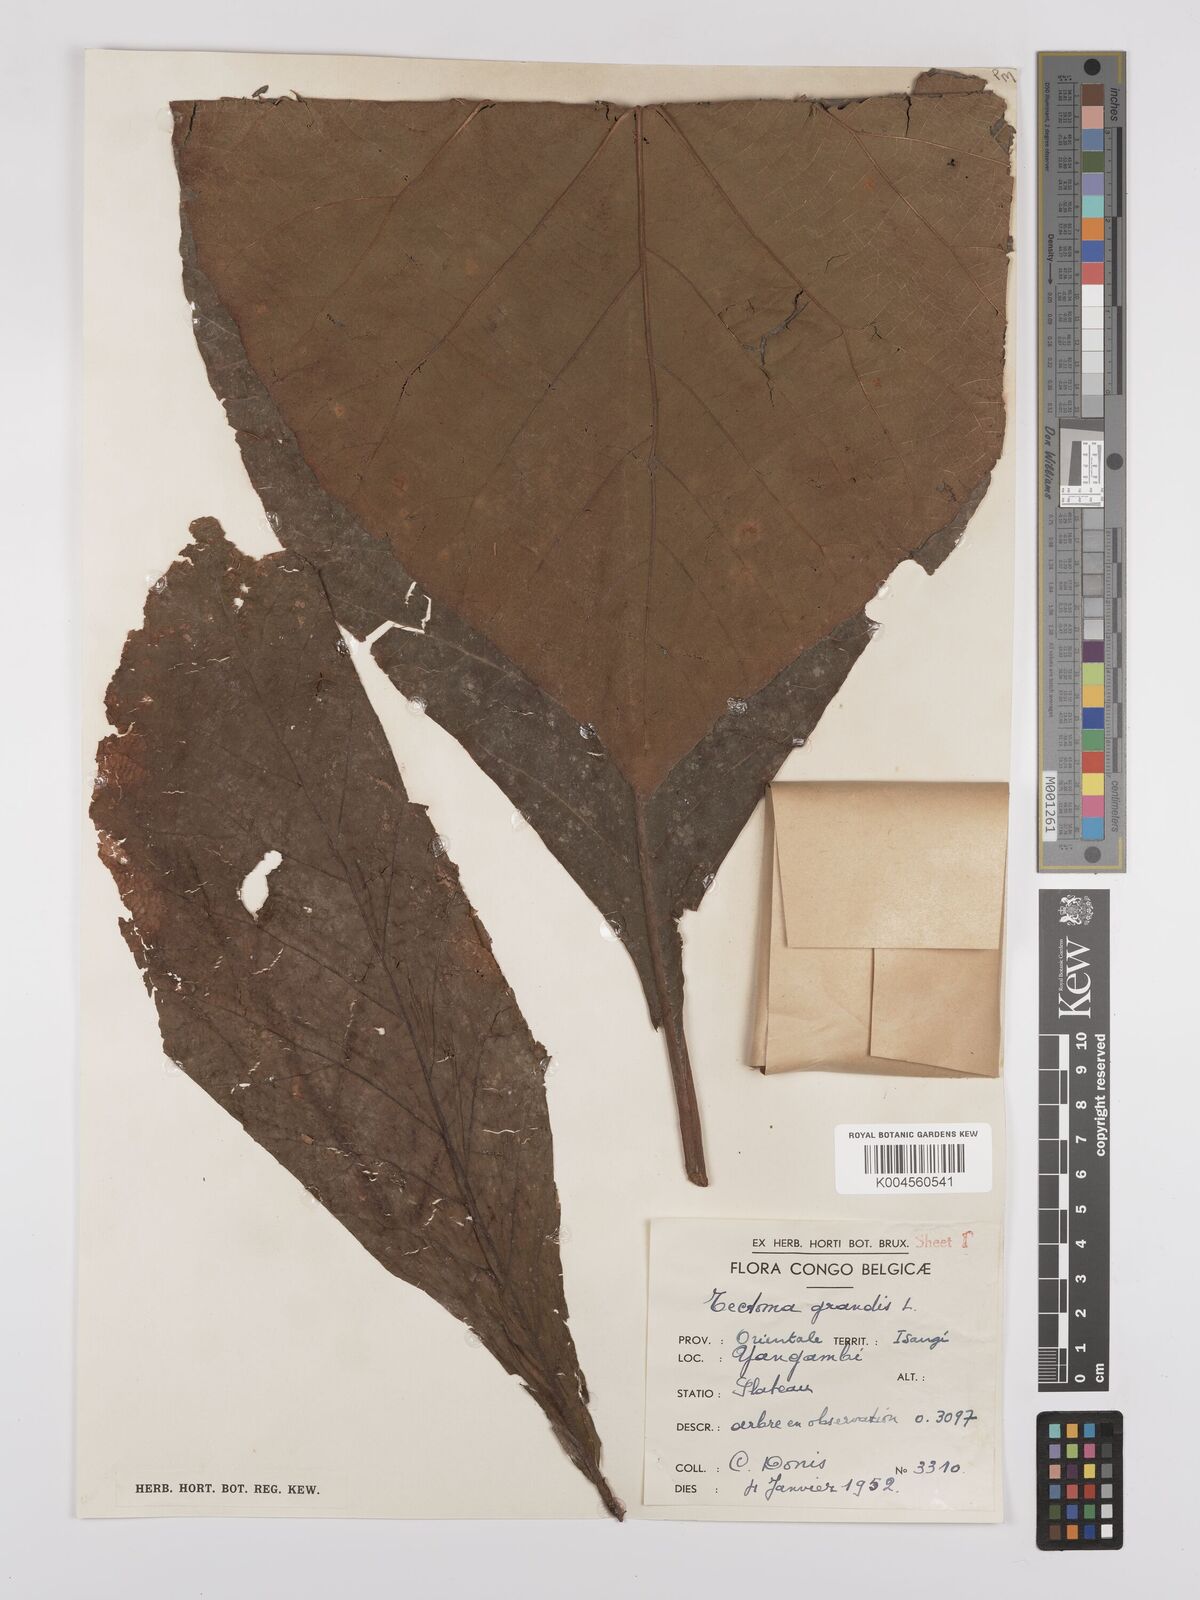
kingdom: Plantae
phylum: Tracheophyta
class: Magnoliopsida
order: Lamiales
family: Lamiaceae
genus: Tectona
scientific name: Tectona grandis
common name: Teak
